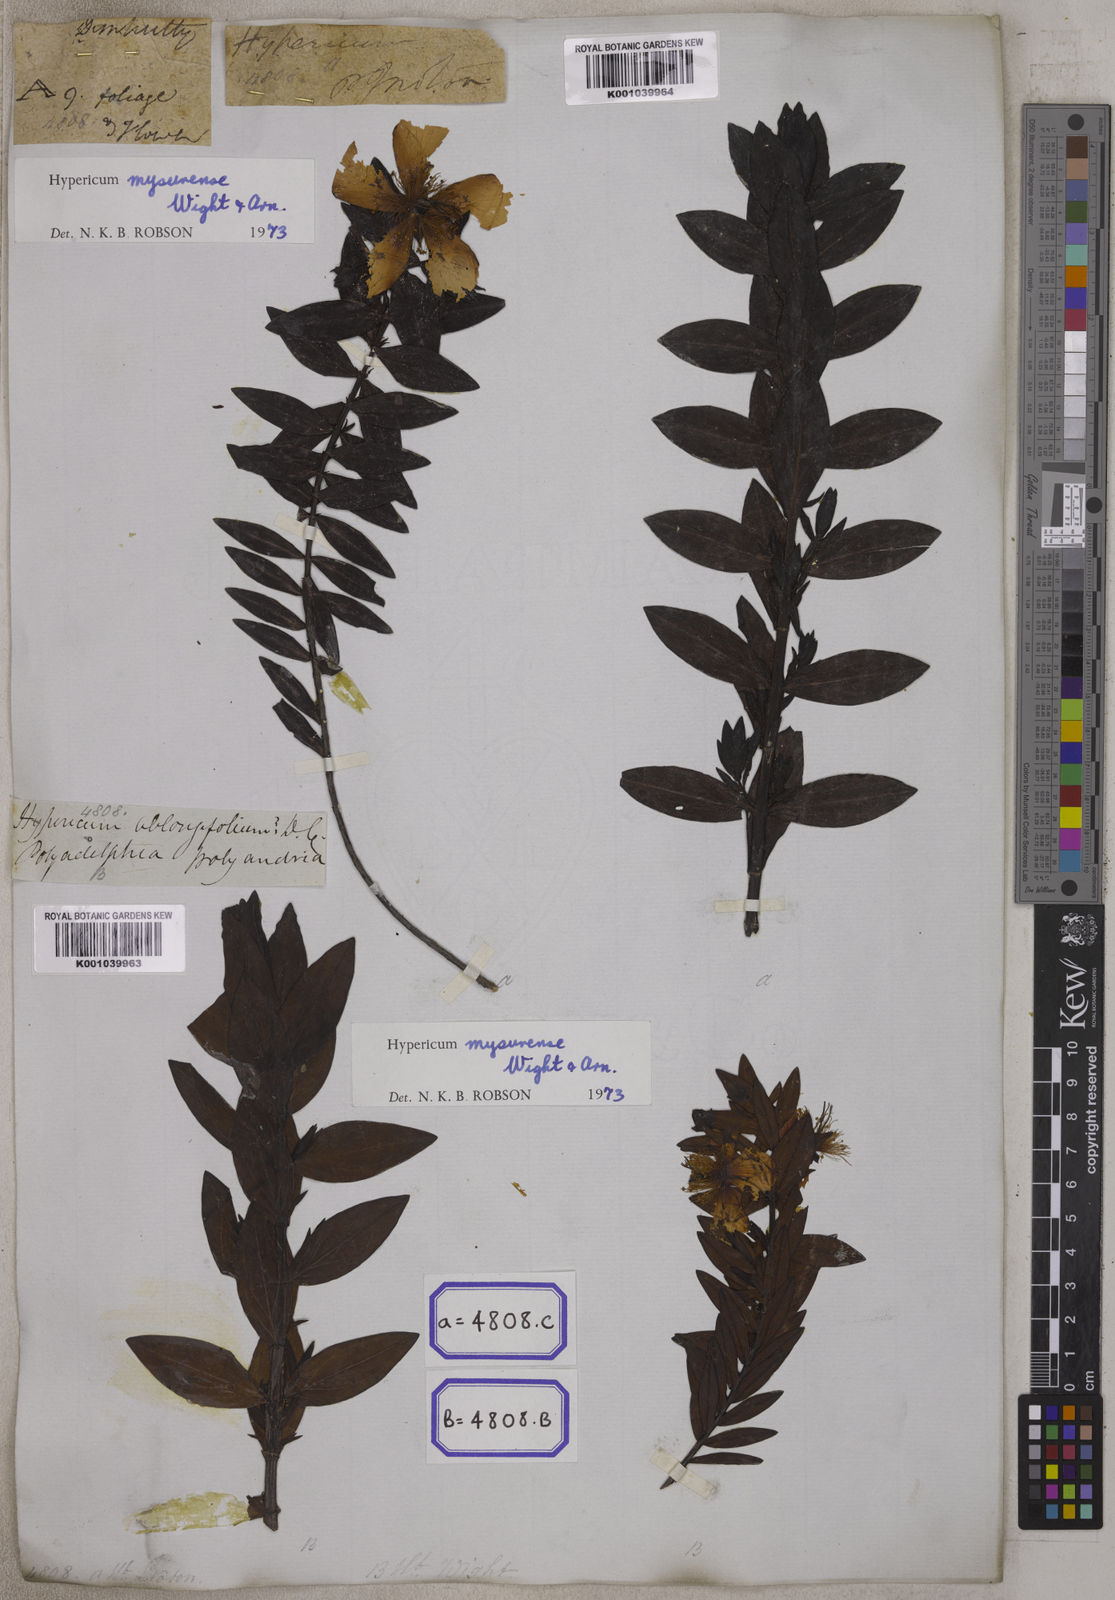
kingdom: Plantae
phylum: Tracheophyta
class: Magnoliopsida
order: Malpighiales
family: Hypericaceae
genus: Hypericum
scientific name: Hypericum
